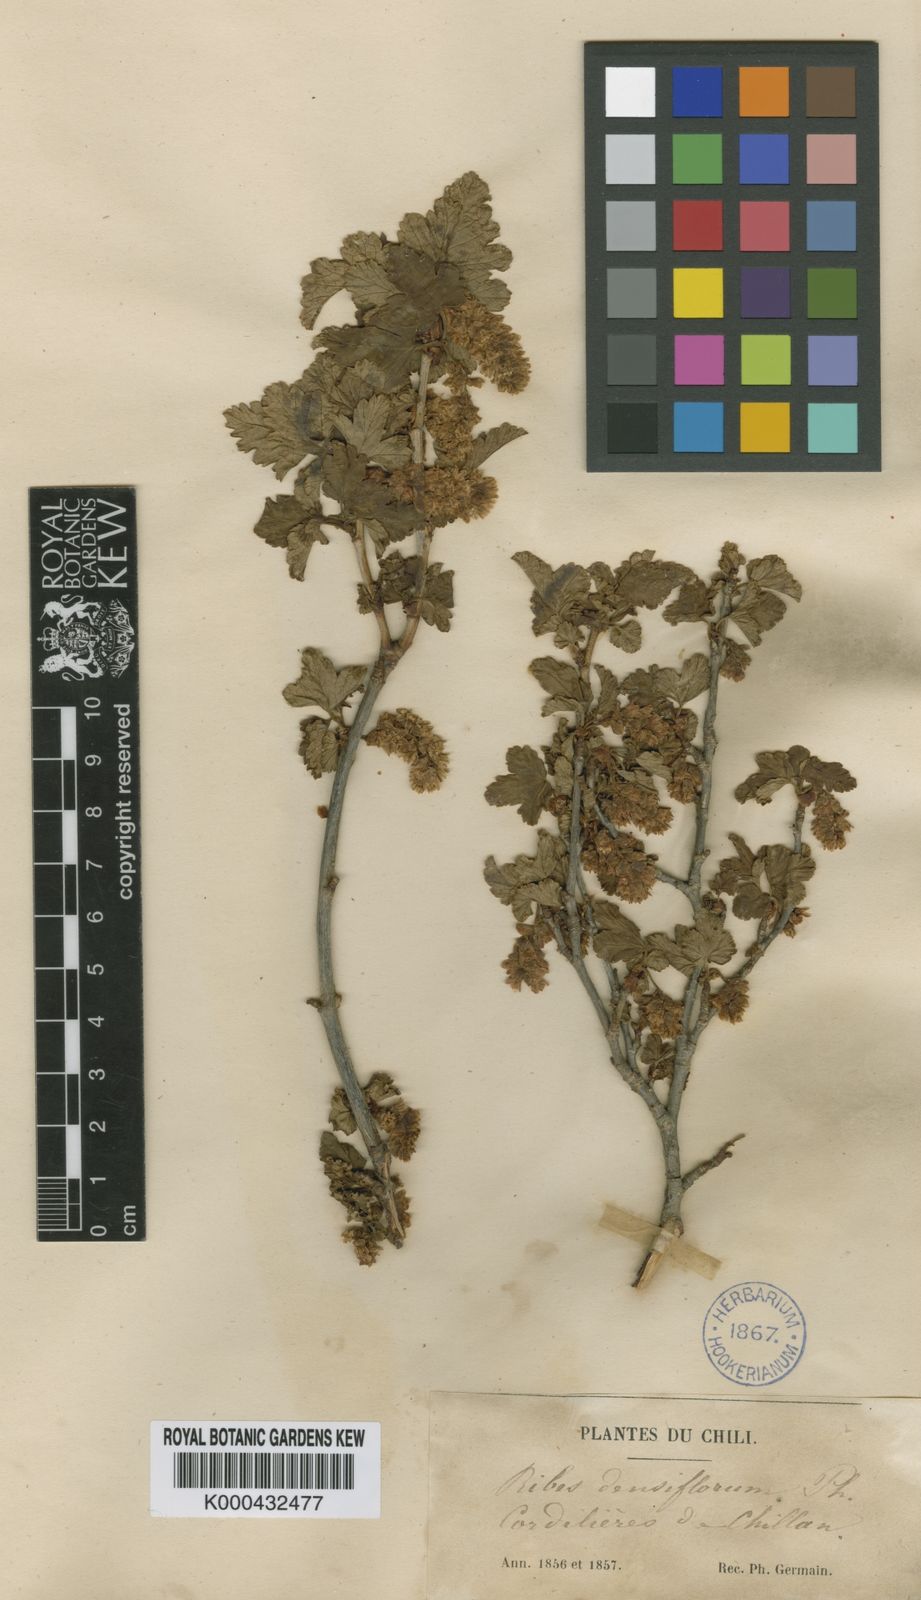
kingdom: Plantae
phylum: Tracheophyta
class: Magnoliopsida
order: Saxifragales
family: Grossulariaceae
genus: Ribes
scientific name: Ribes densiflorum
